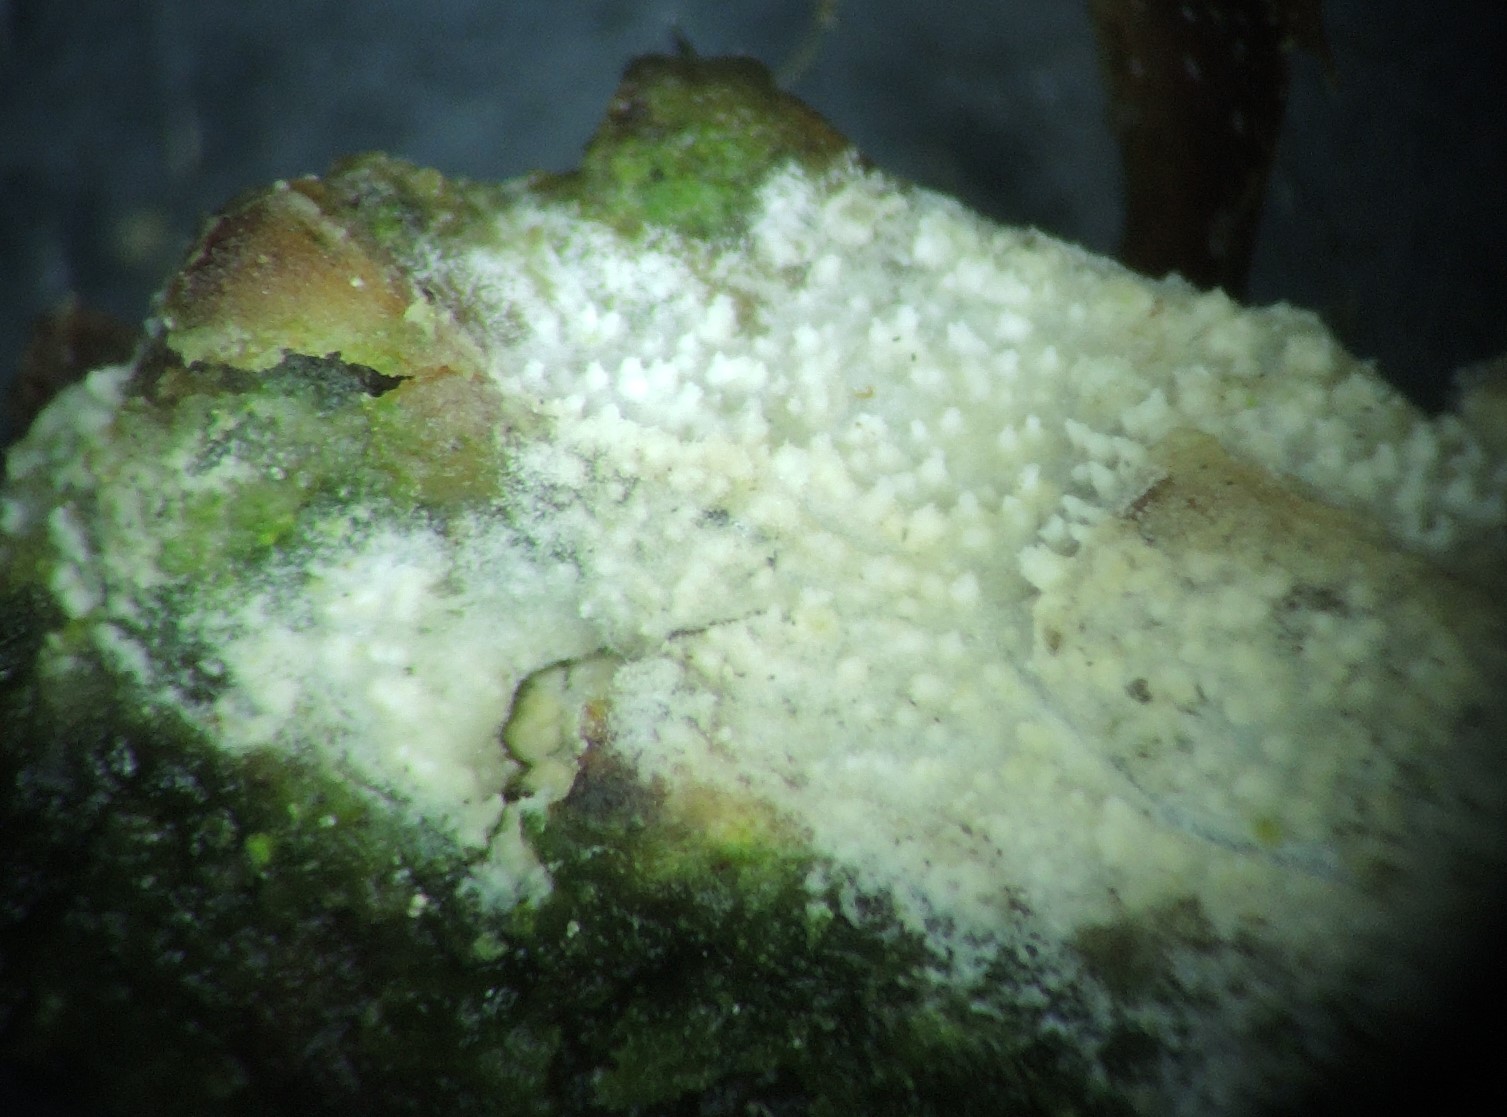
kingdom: Fungi
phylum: Basidiomycota
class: Agaricomycetes
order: Hymenochaetales
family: Schizoporaceae
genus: Xylodon
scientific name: Xylodon
